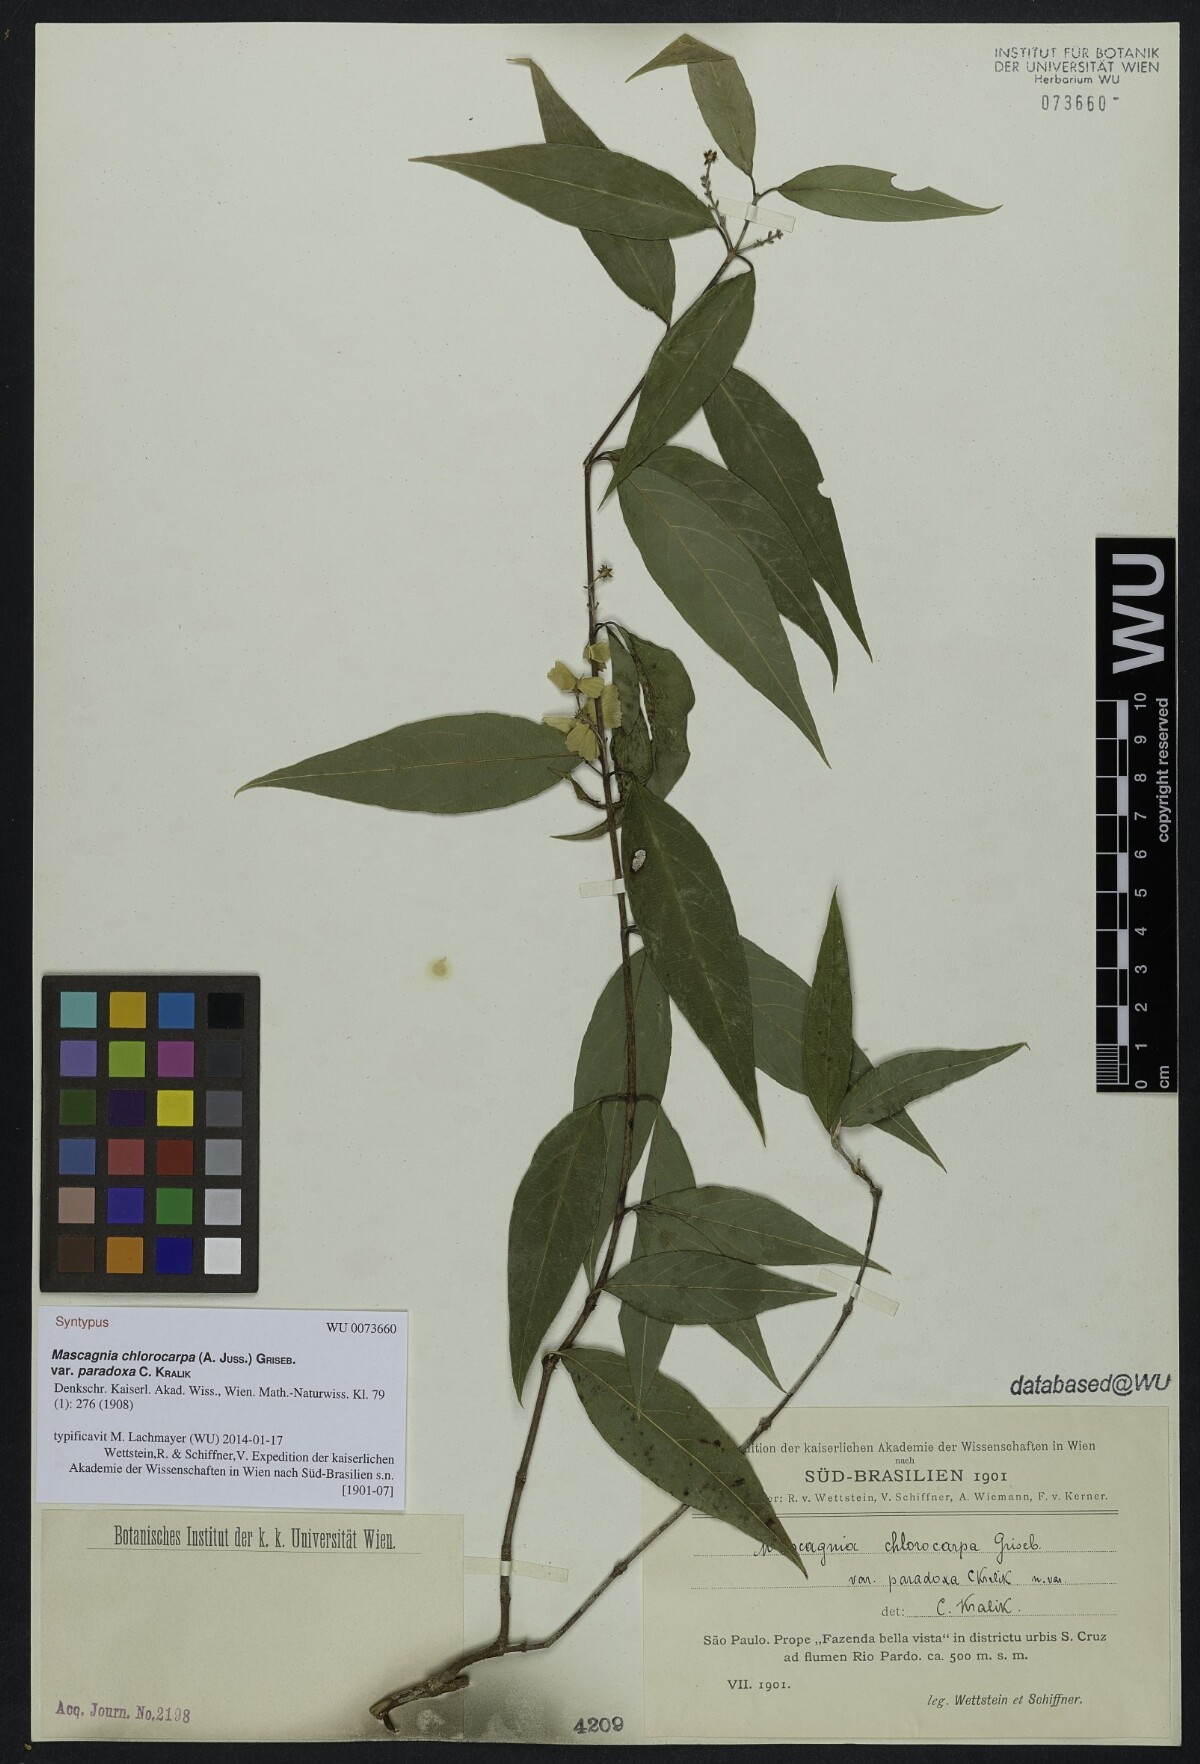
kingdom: Plantae
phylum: Tracheophyta
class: Magnoliopsida
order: Malpighiales
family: Malpighiaceae
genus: Carolus
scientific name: Carolus chlorocarpus
